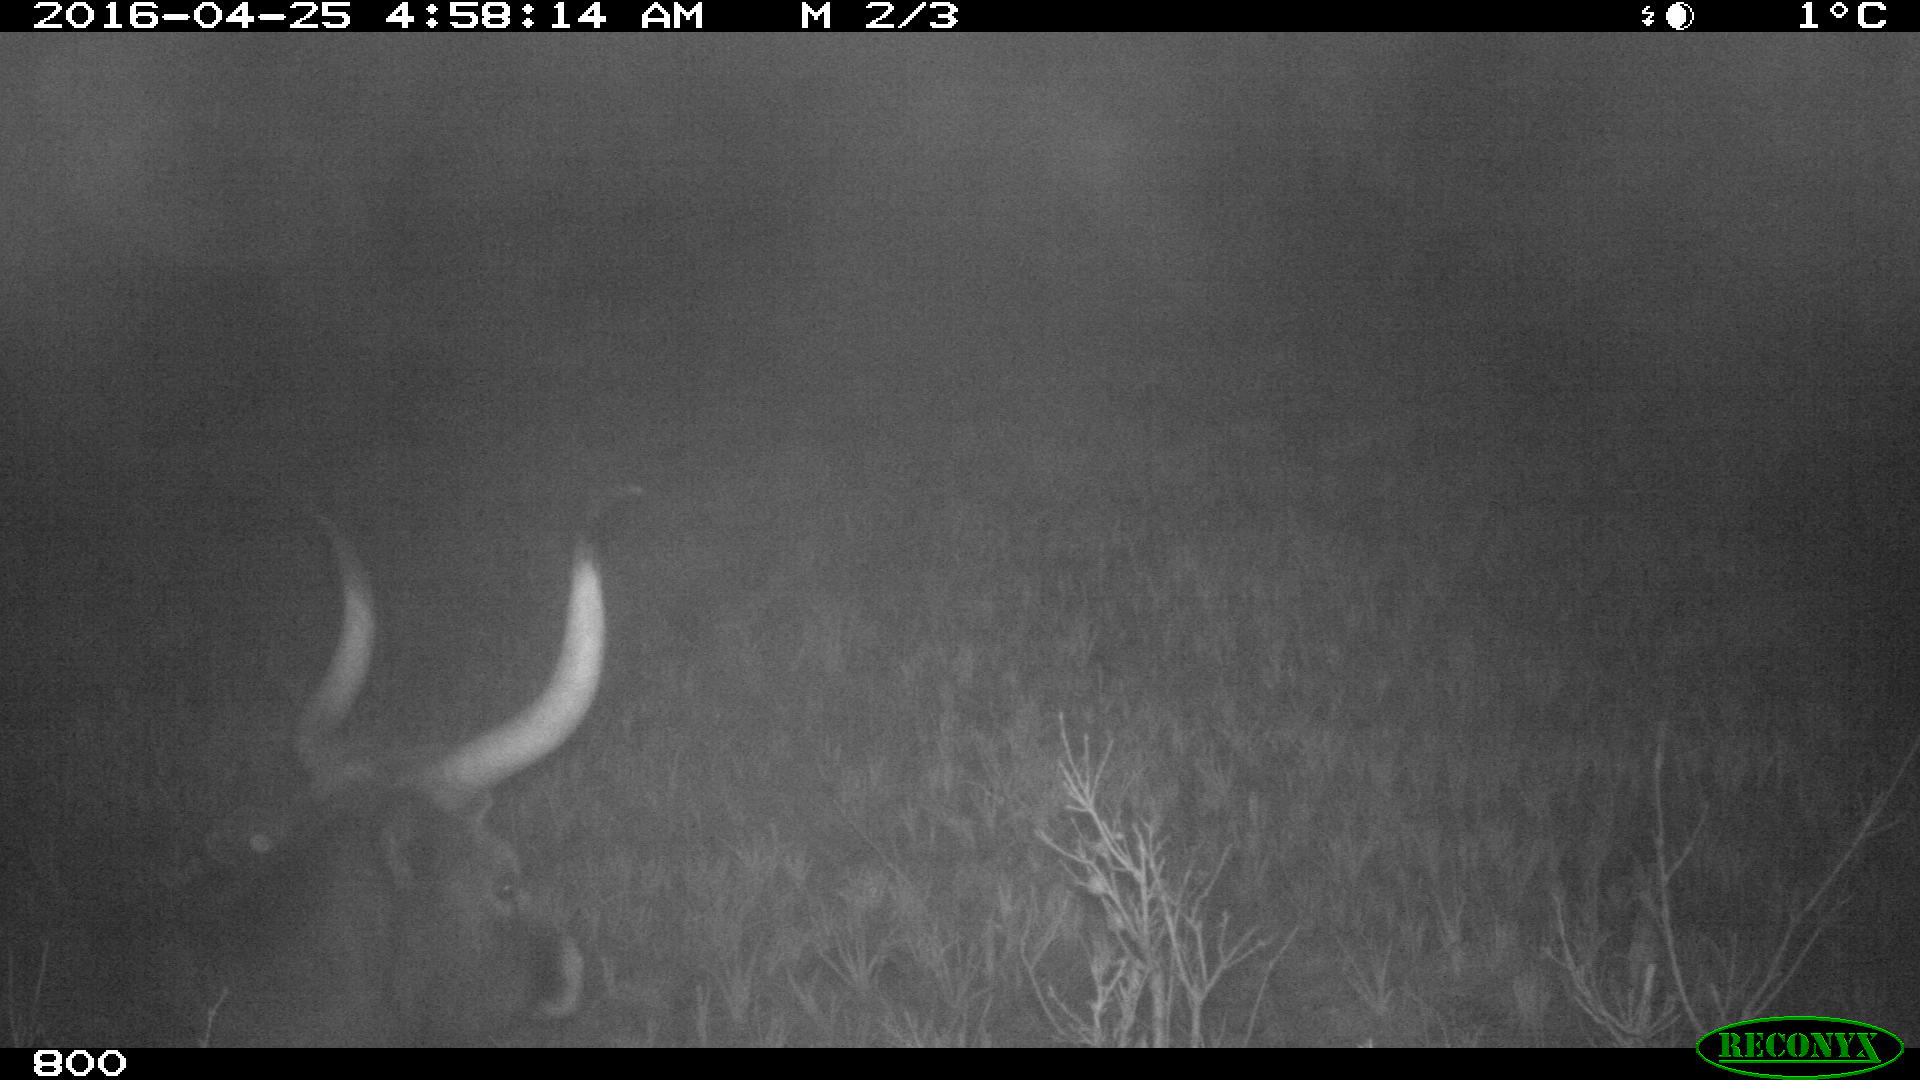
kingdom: Animalia
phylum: Chordata
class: Mammalia
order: Artiodactyla
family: Bovidae
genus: Bos
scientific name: Bos taurus
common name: Domesticated cattle
